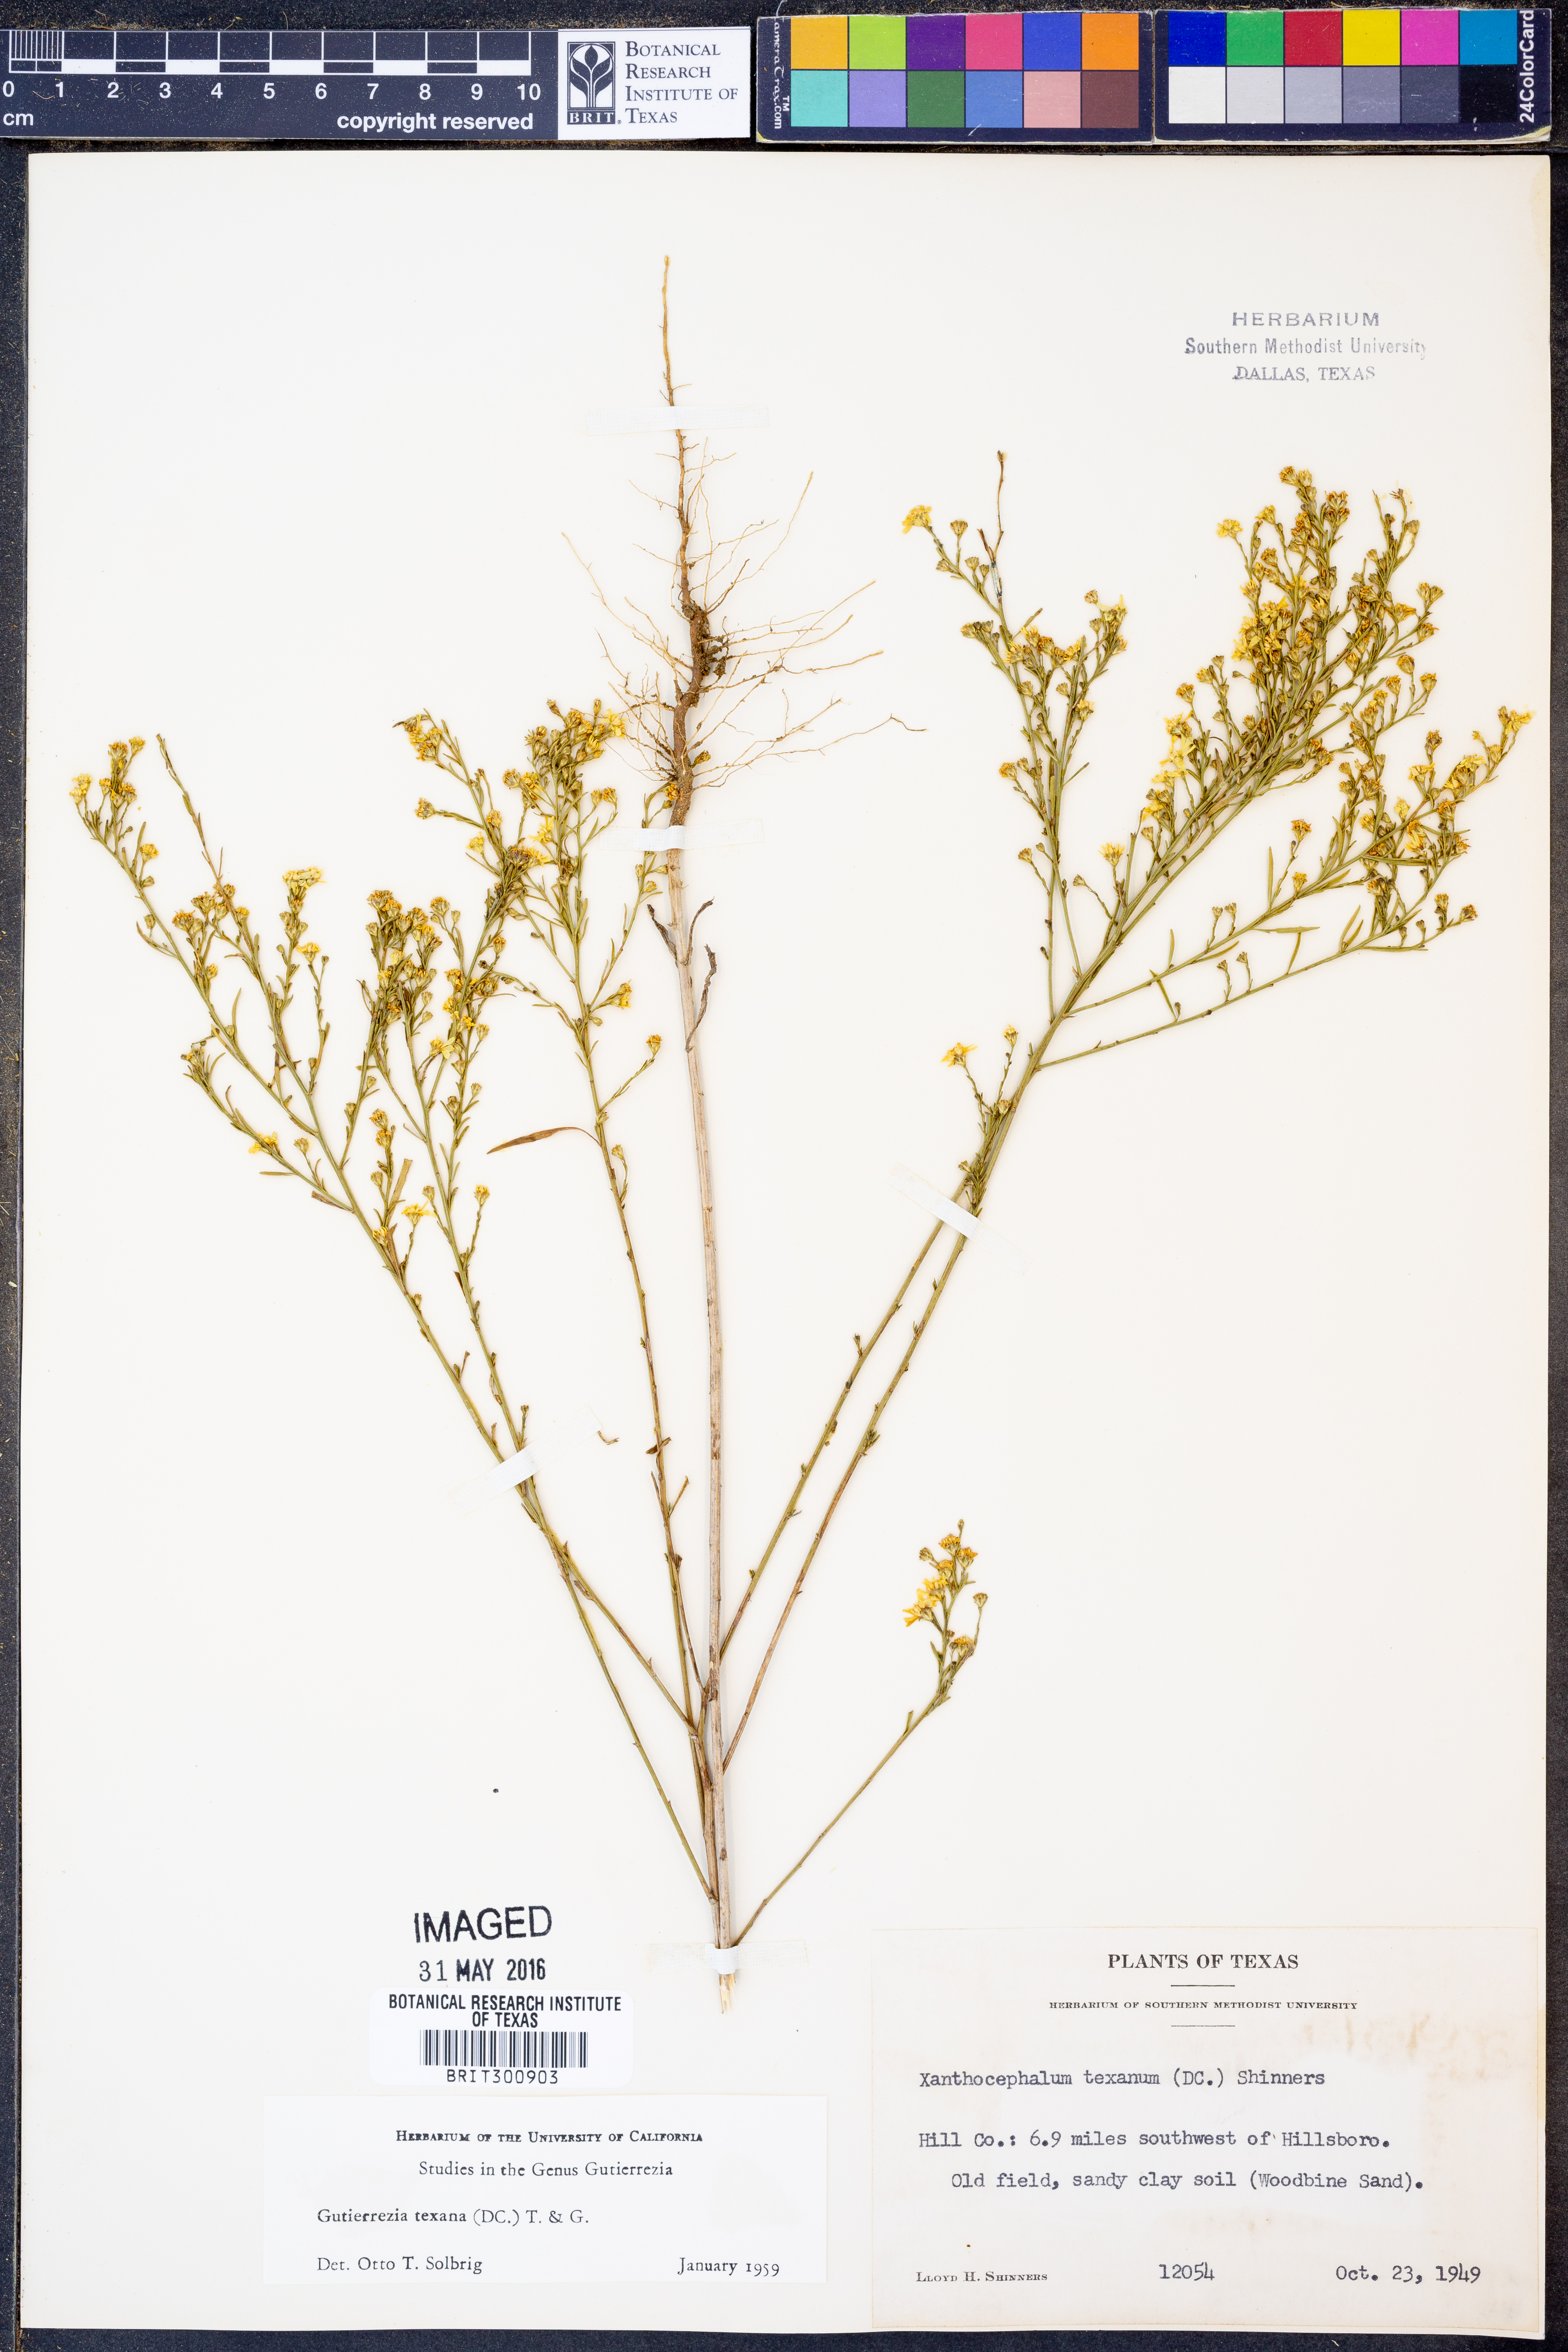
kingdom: Plantae
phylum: Tracheophyta
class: Magnoliopsida
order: Asterales
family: Asteraceae
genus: Gutierrezia
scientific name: Gutierrezia texana
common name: Texas snakeweed
